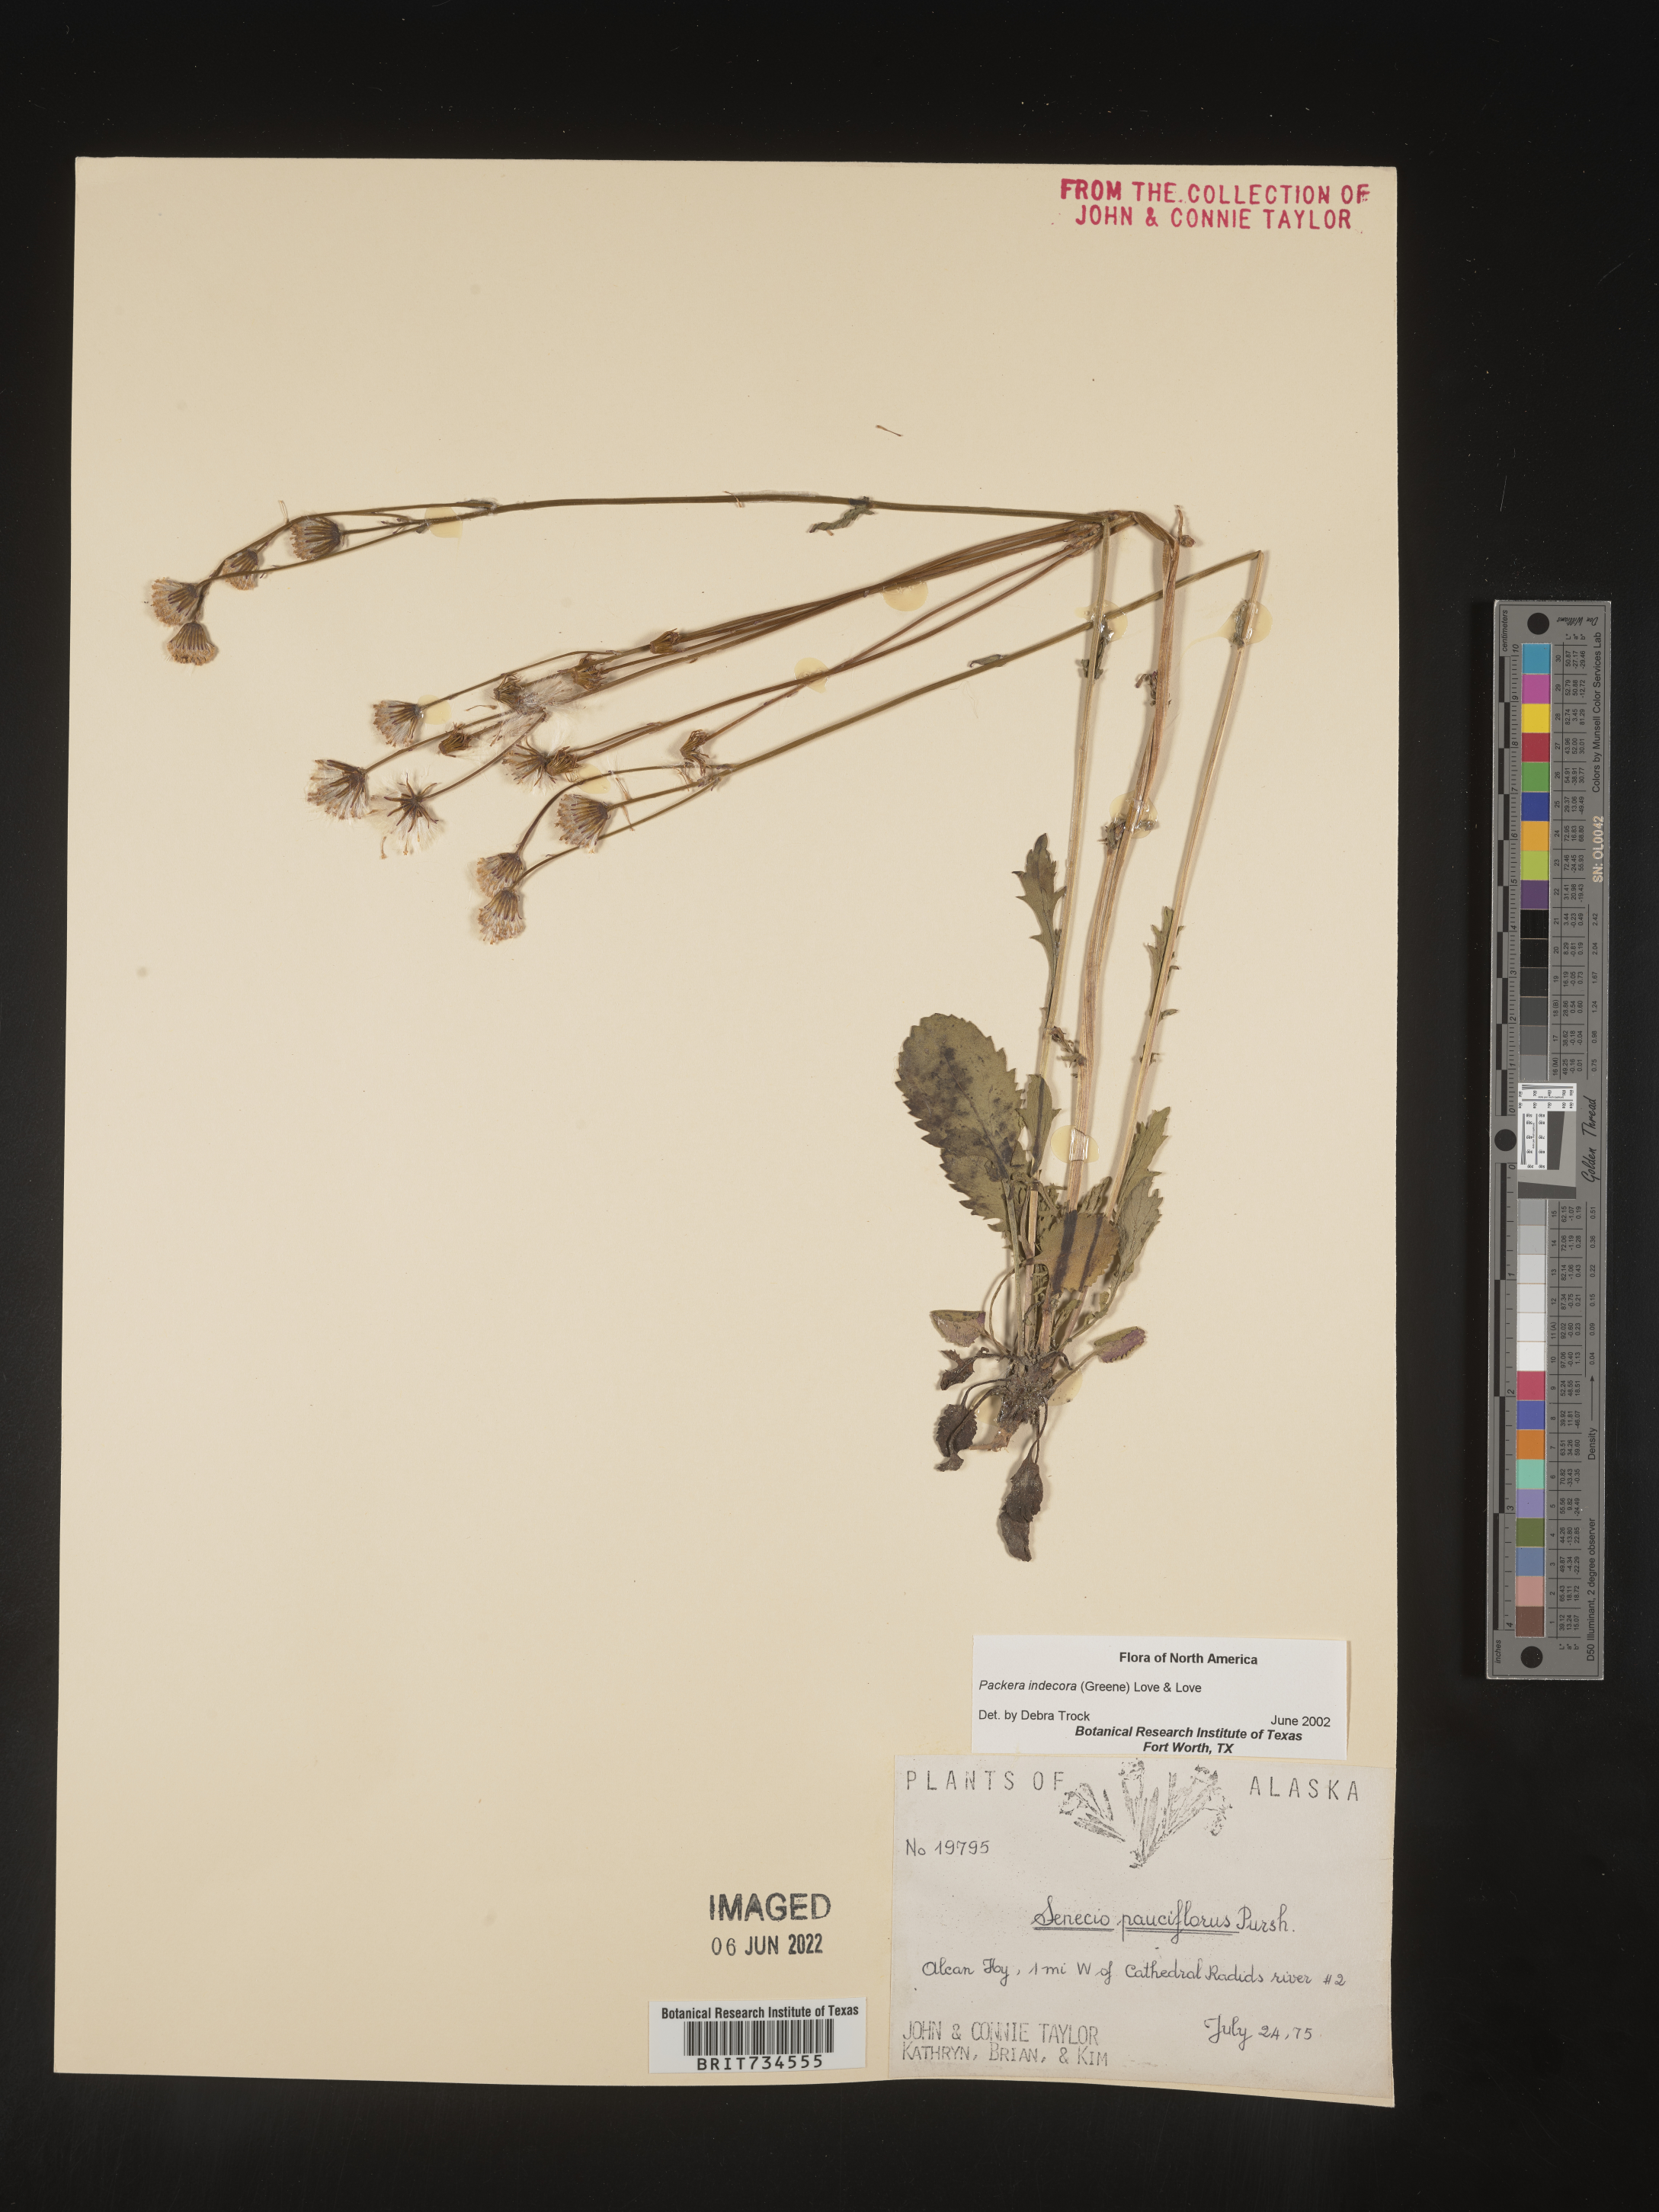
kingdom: Plantae
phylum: Tracheophyta
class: Magnoliopsida
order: Asterales
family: Asteraceae
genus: Packera
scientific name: Packera
